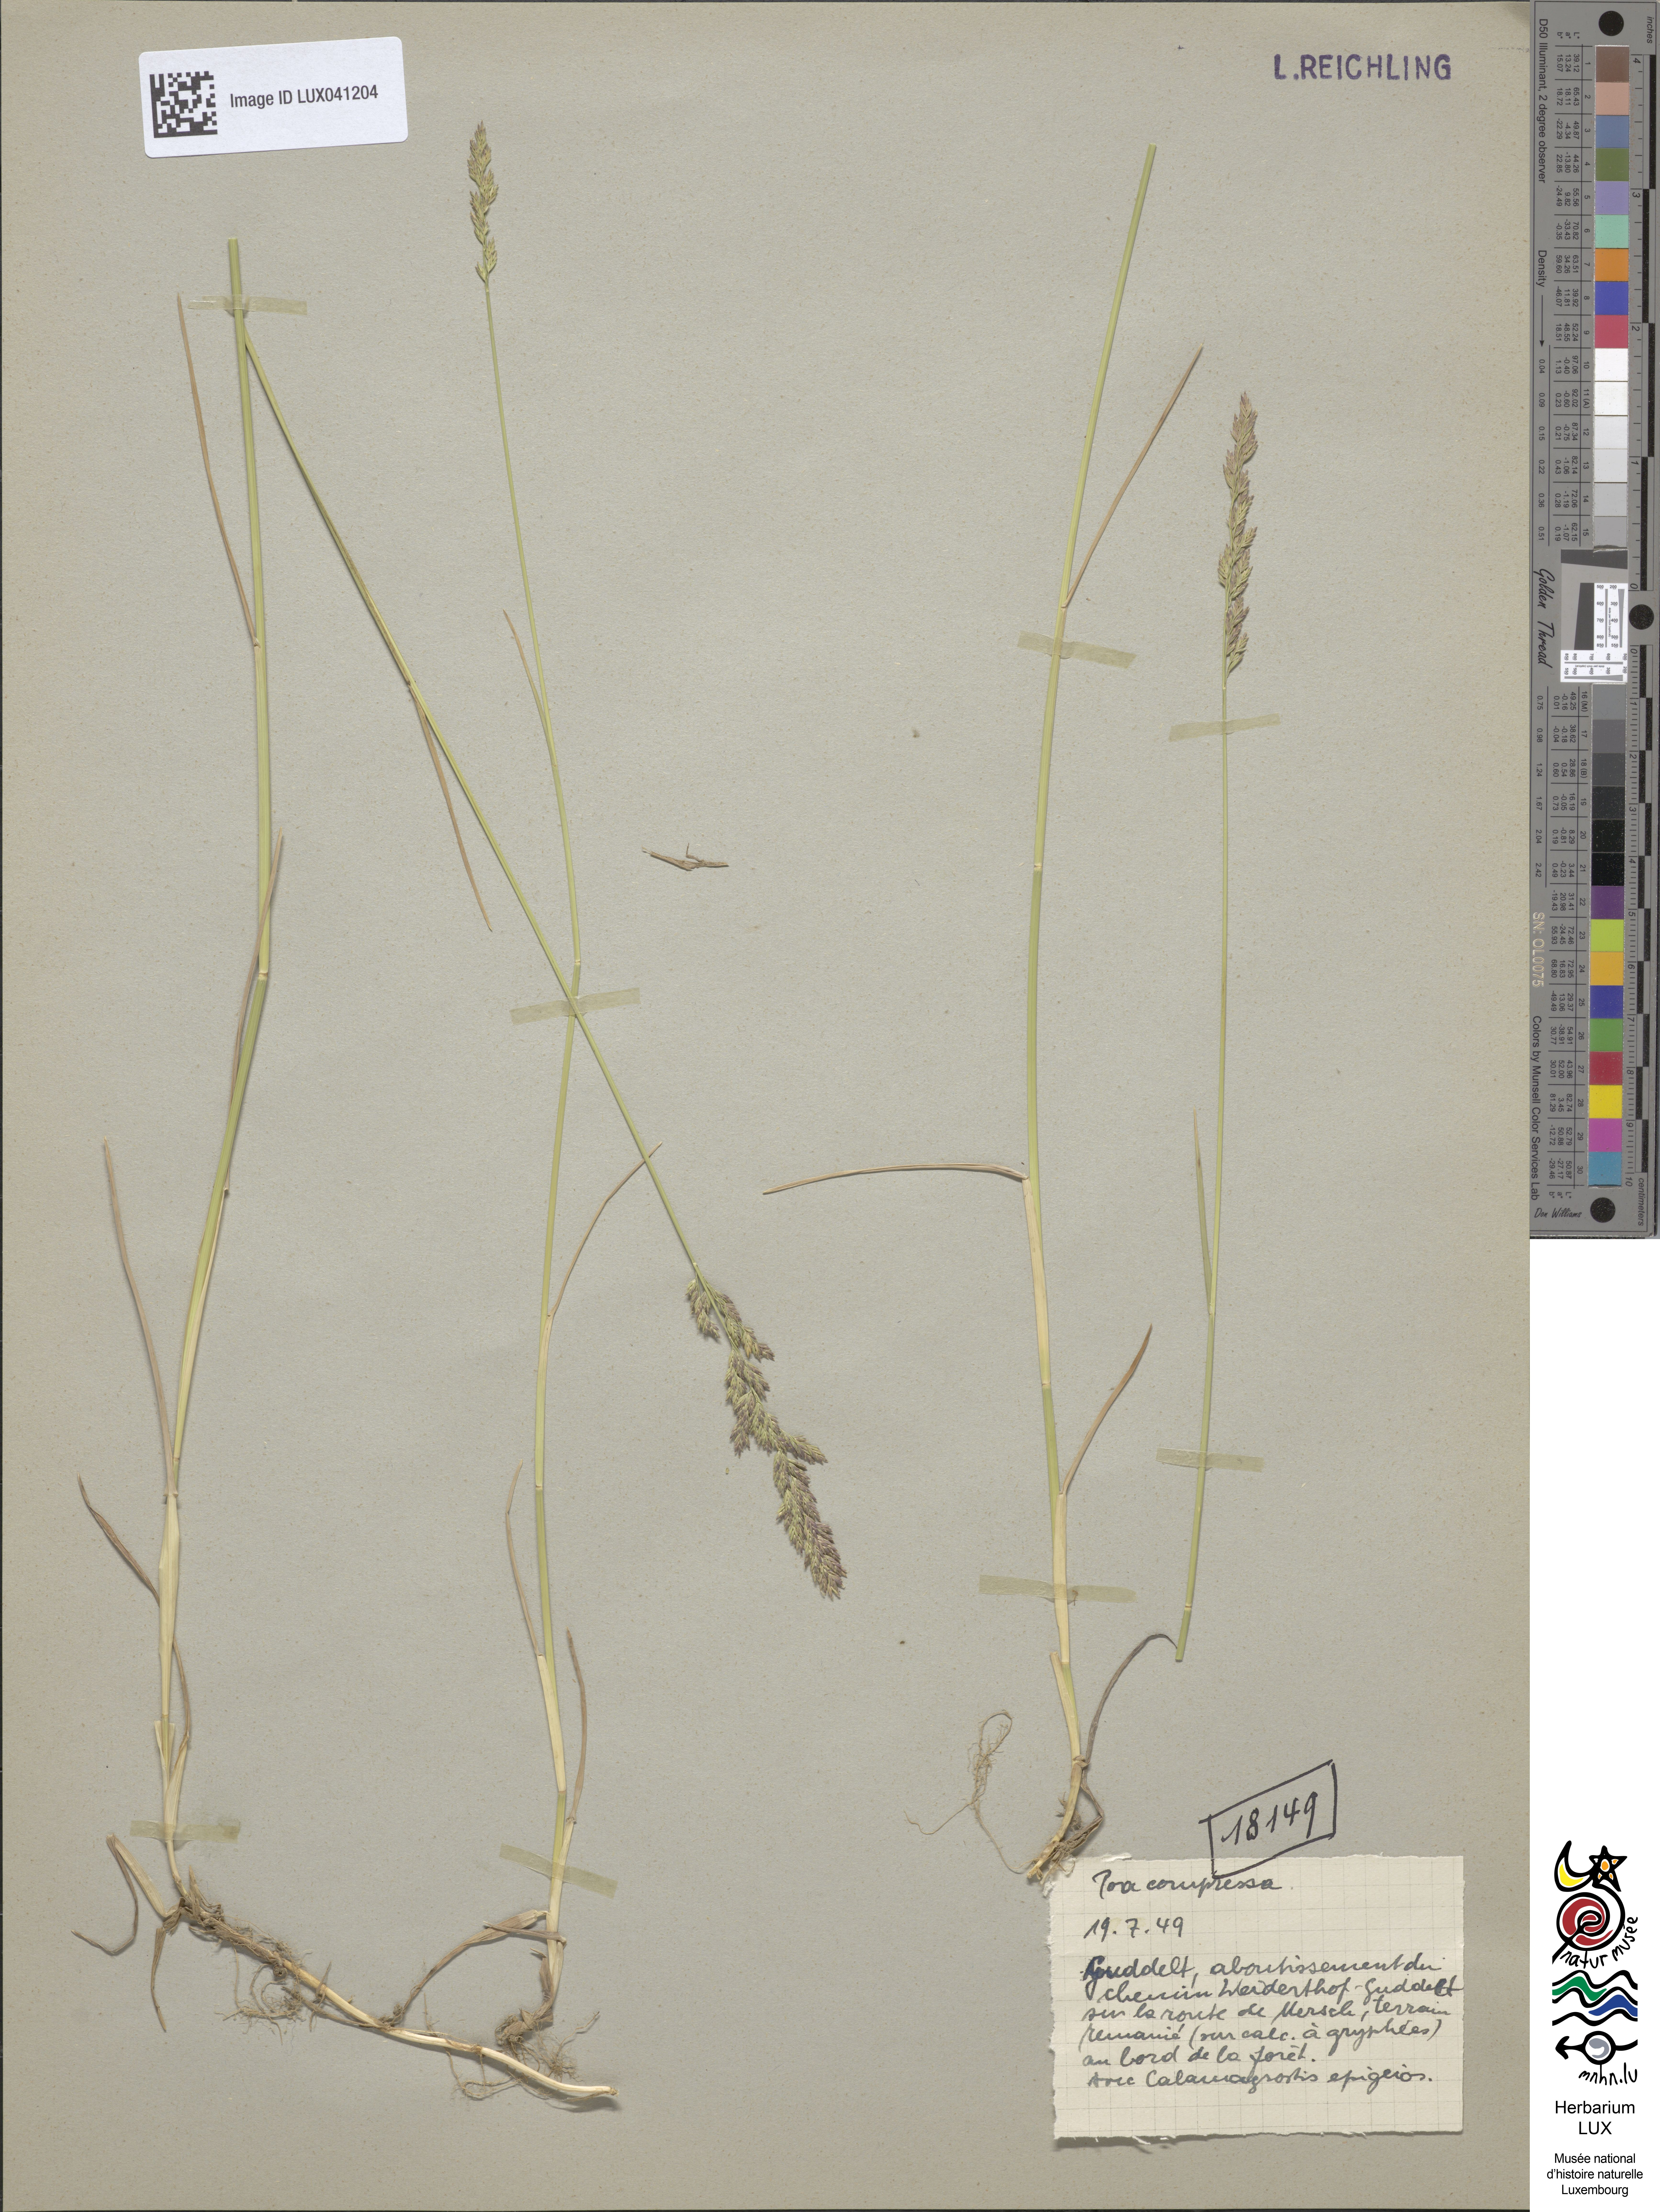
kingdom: Plantae
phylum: Tracheophyta
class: Liliopsida
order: Poales
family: Poaceae
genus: Poa
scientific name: Poa compressa
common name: Canada bluegrass
